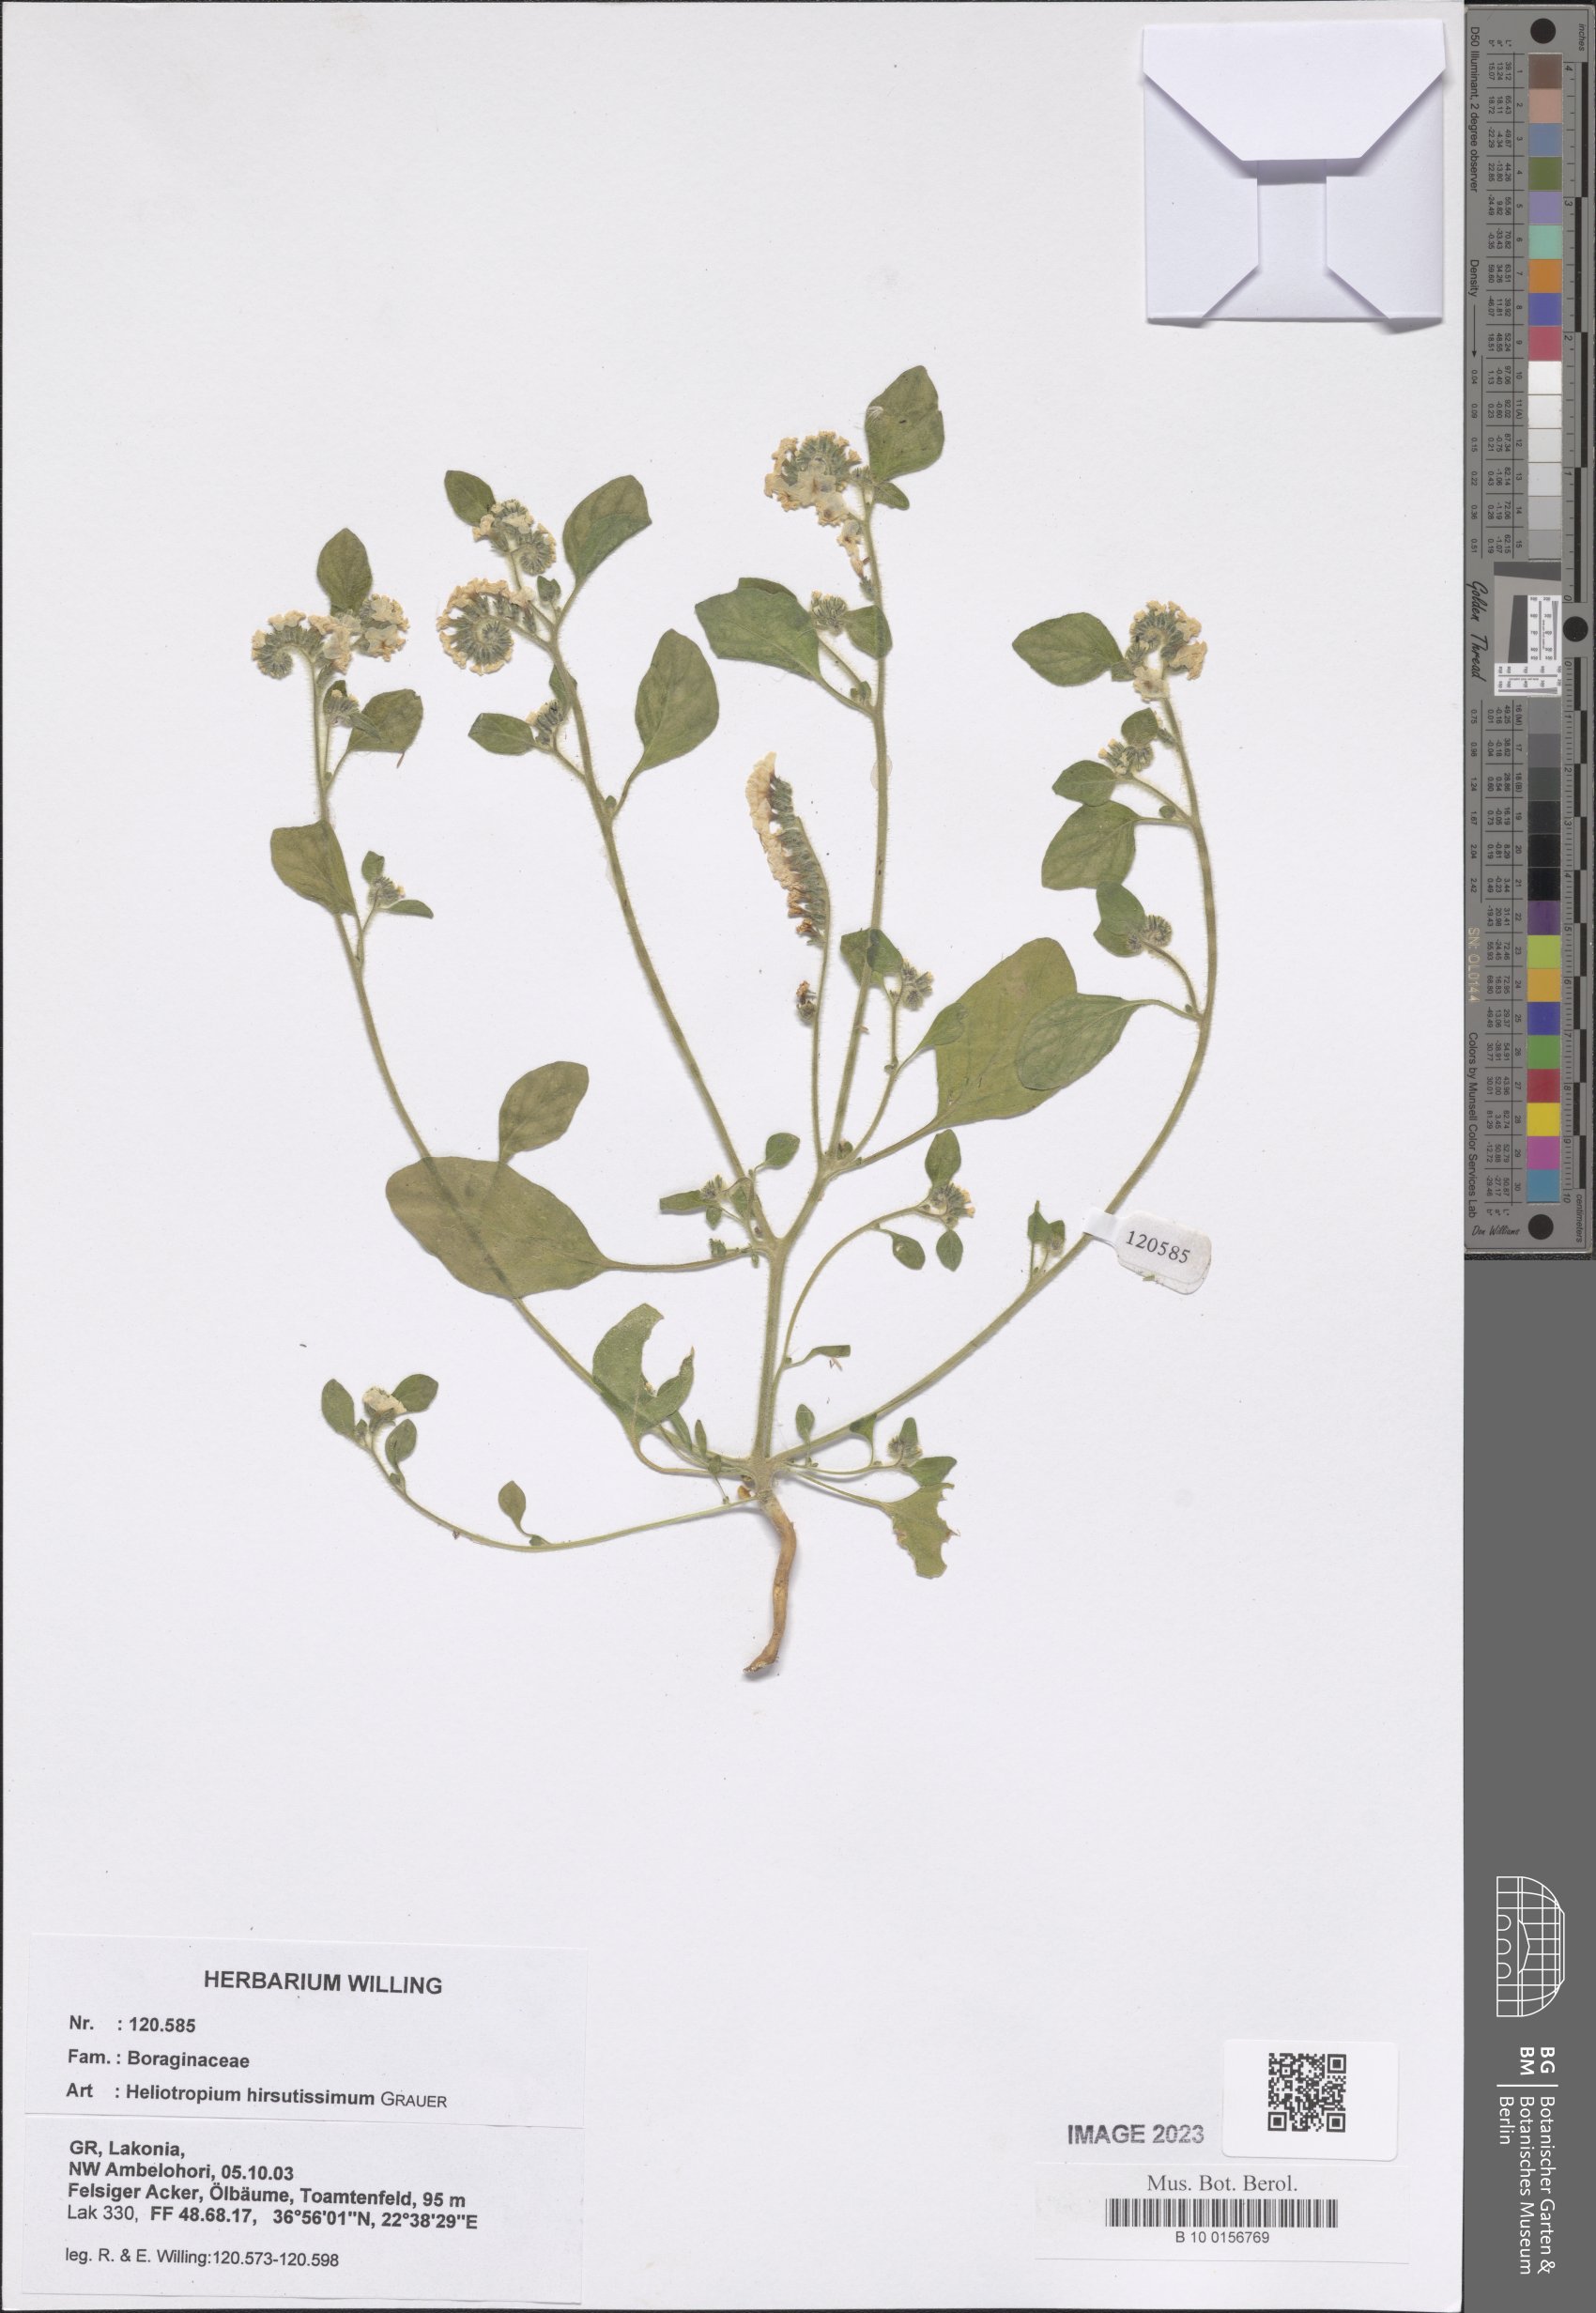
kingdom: Plantae
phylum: Tracheophyta
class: Magnoliopsida
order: Boraginales
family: Heliotropiaceae
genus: Heliotropium
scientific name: Heliotropium hirsutissimum
